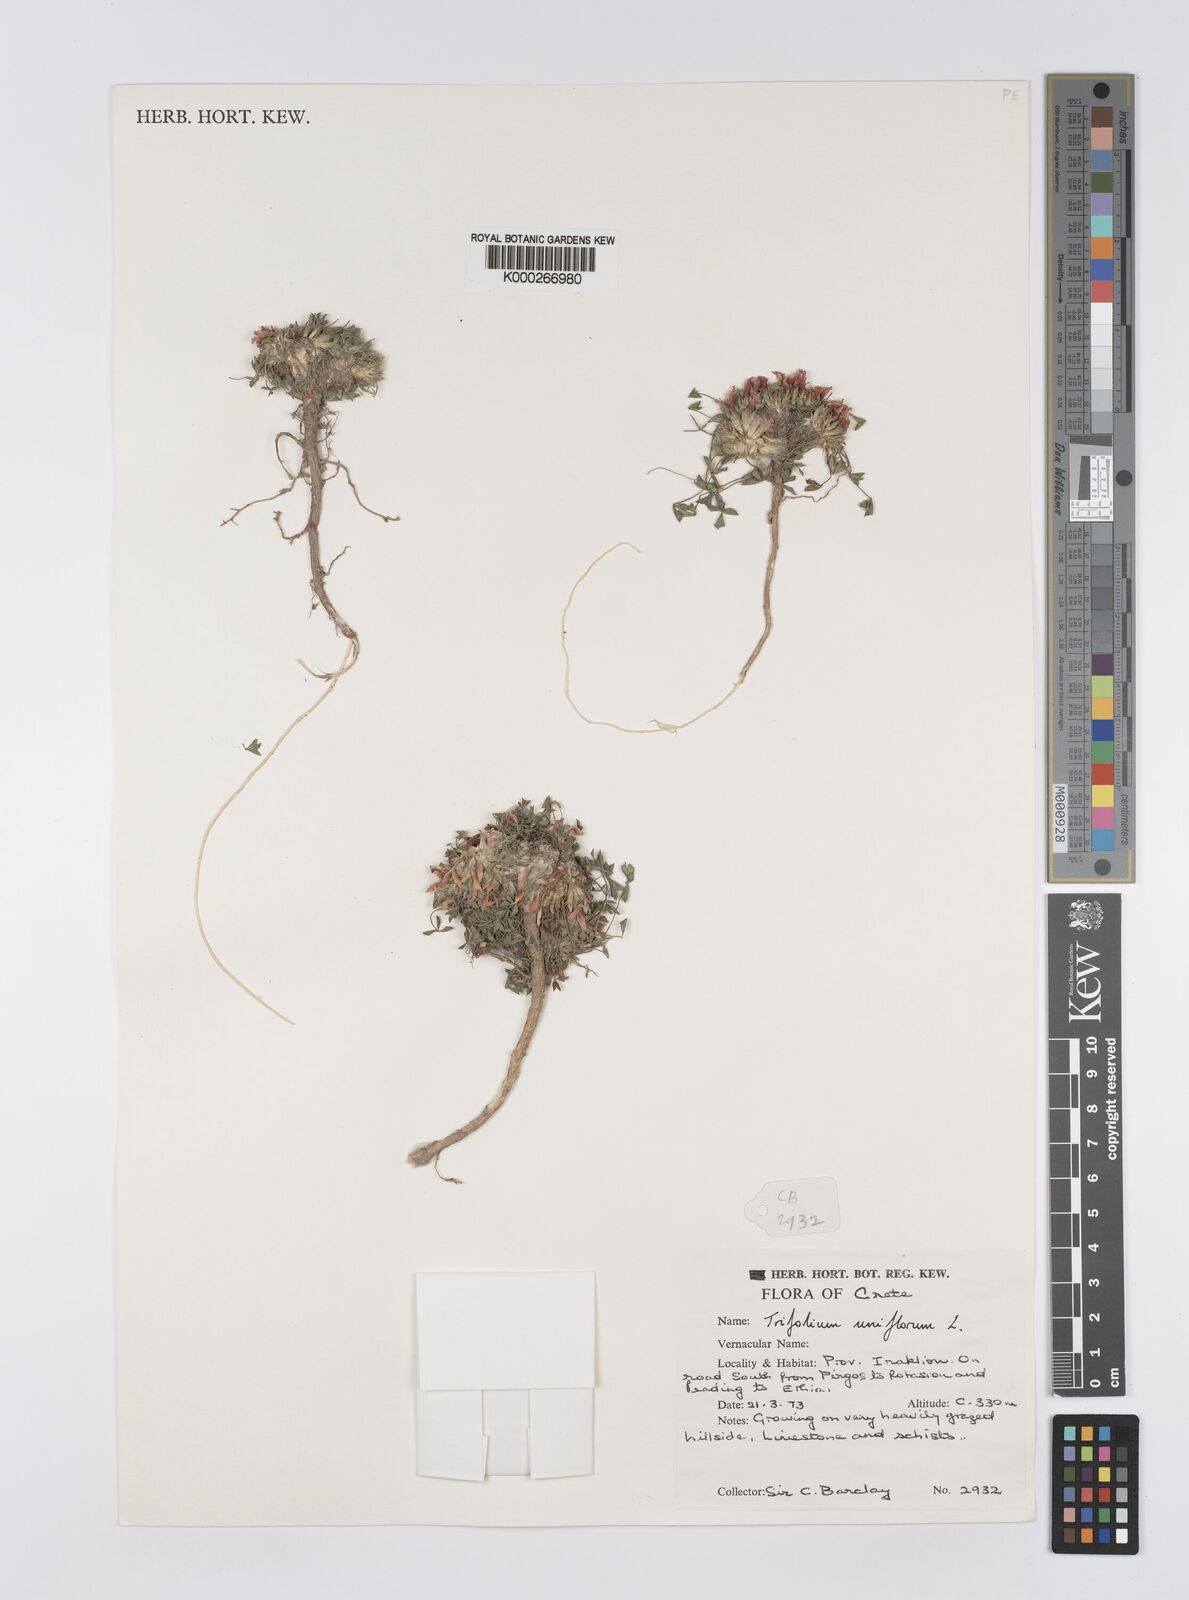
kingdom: Plantae
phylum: Tracheophyta
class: Magnoliopsida
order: Fabales
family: Fabaceae
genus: Trifolium
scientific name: Trifolium uniflorum
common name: One-flower clover
